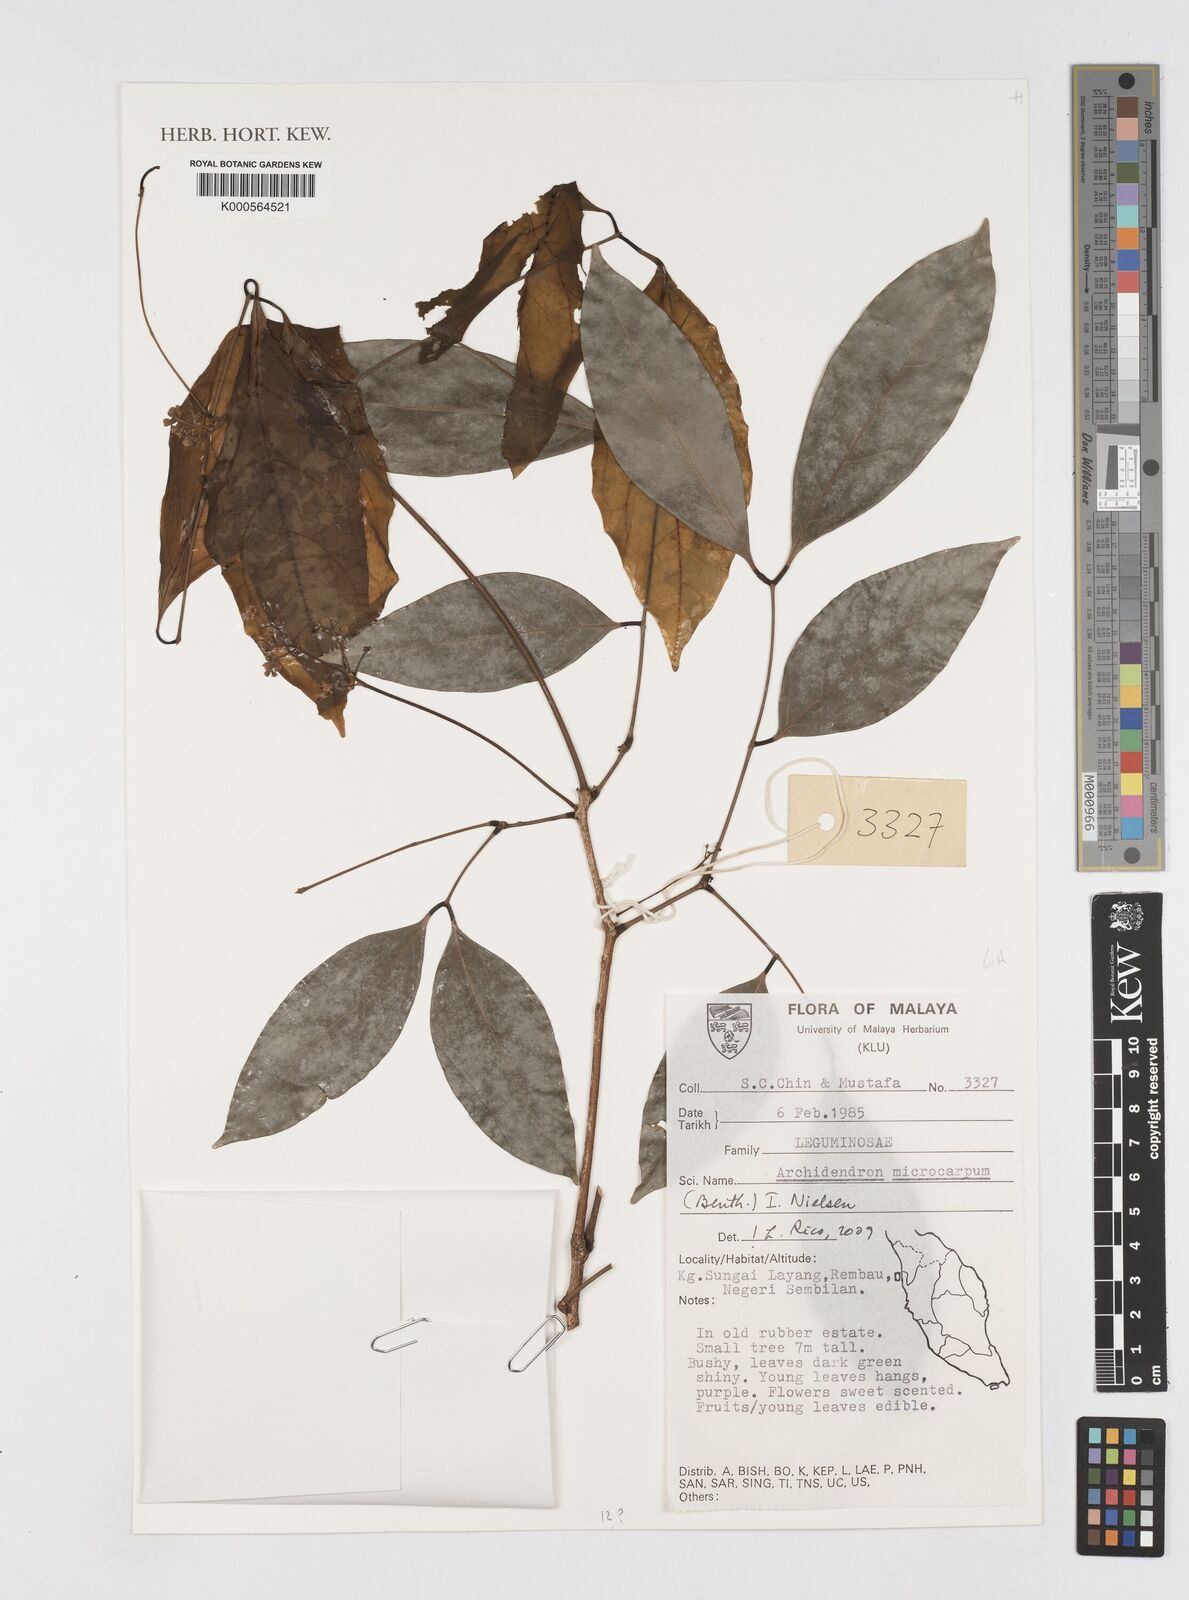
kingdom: Plantae
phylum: Tracheophyta
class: Magnoliopsida
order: Fabales
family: Fabaceae
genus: Archidendron
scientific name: Archidendron microcarpum
